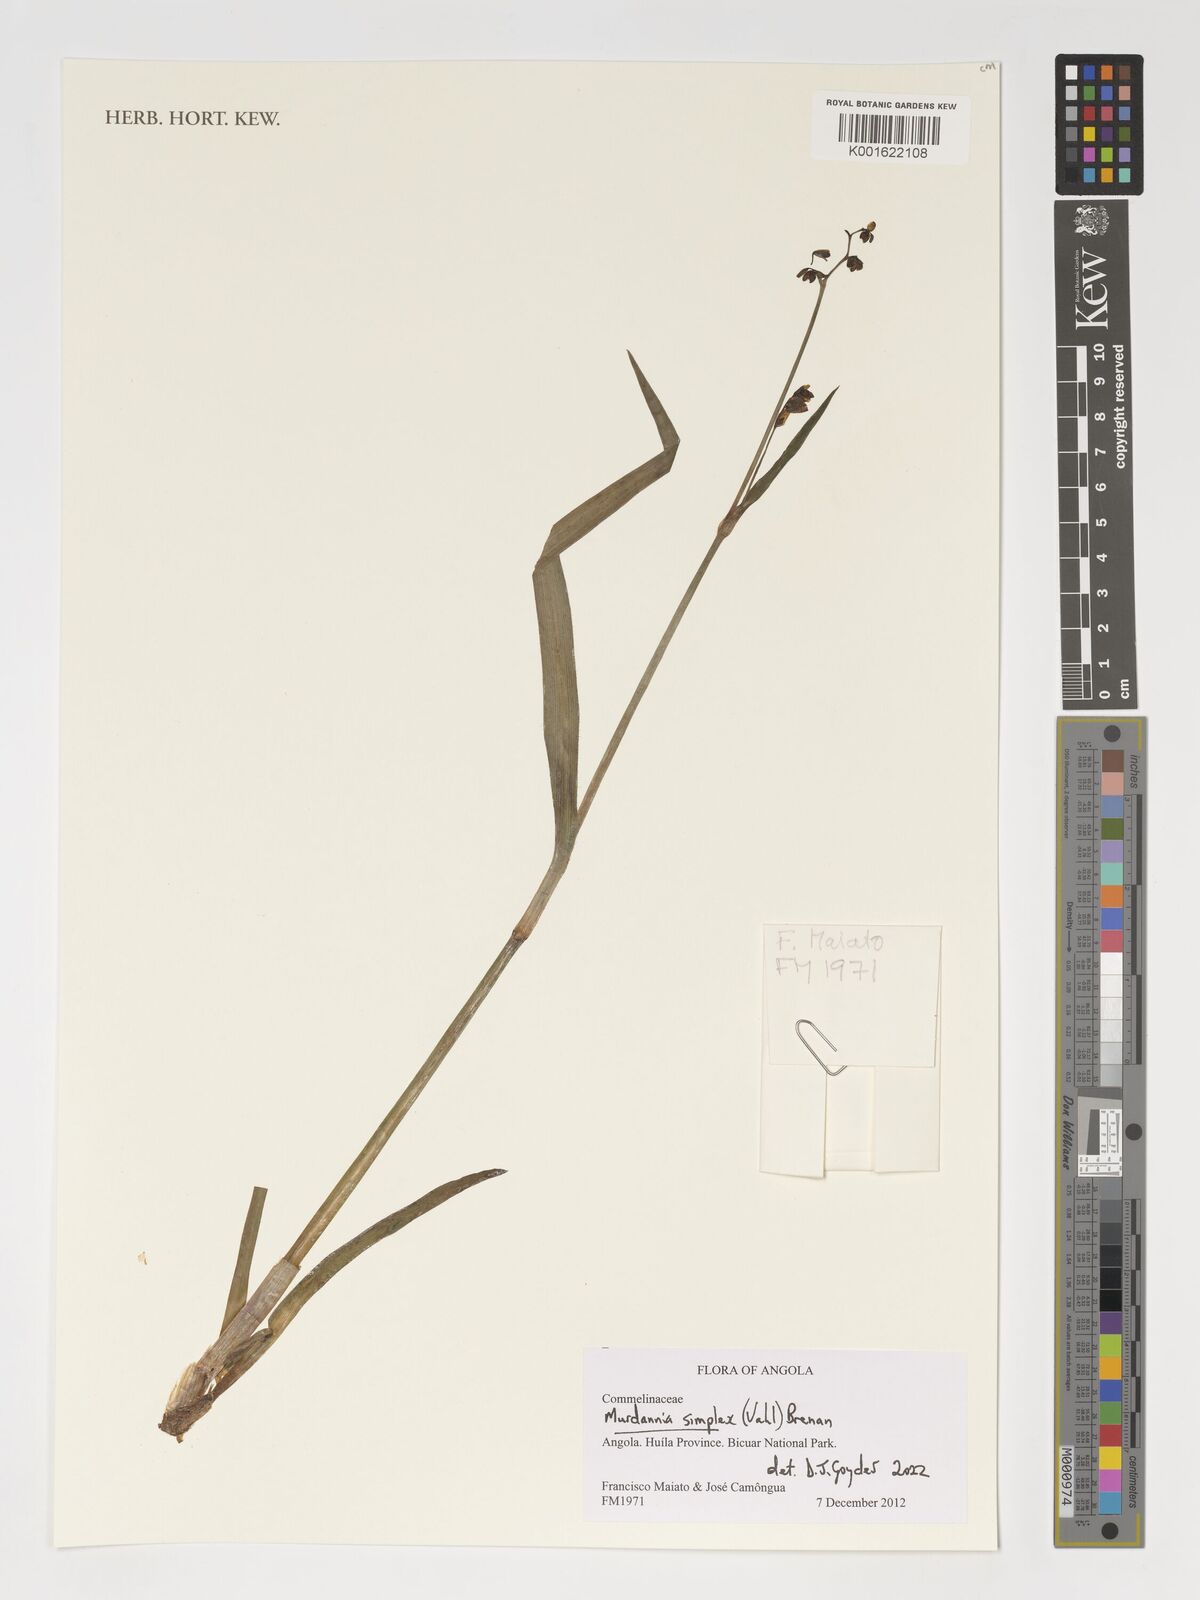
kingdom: Plantae
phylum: Tracheophyta
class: Liliopsida
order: Commelinales
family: Commelinaceae
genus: Murdannia
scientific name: Murdannia simplex
